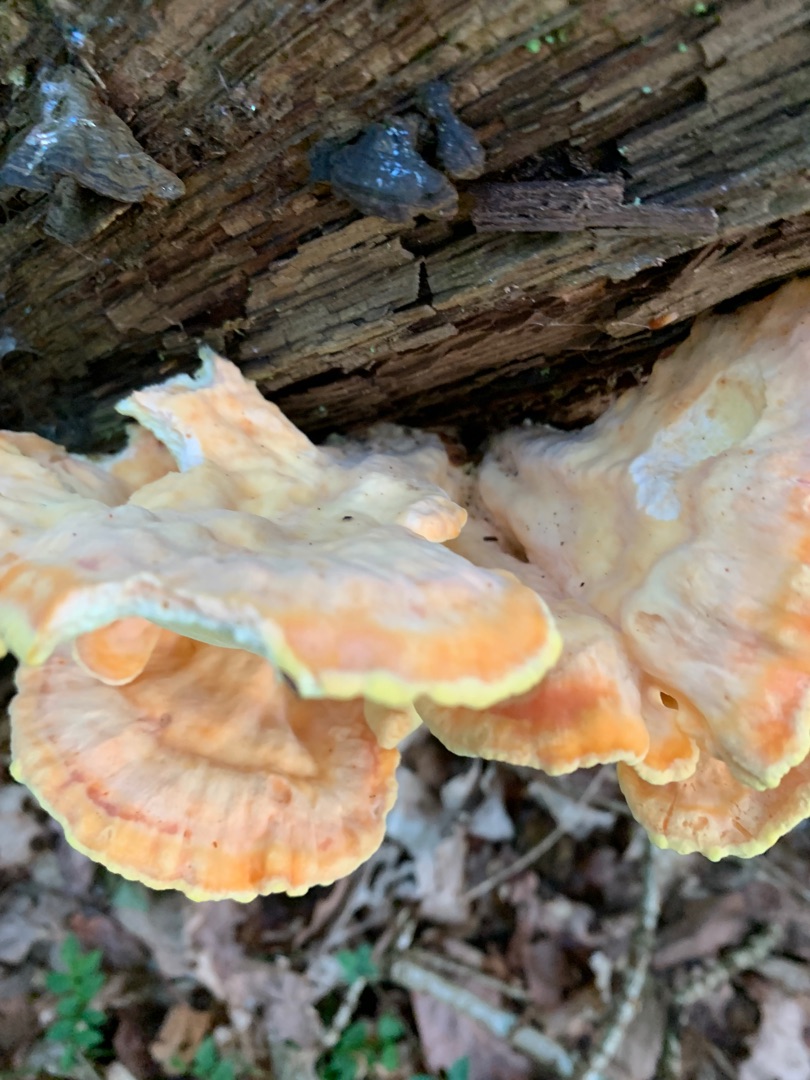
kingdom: Fungi
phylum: Basidiomycota
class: Agaricomycetes
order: Polyporales
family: Laetiporaceae
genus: Laetiporus
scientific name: Laetiporus sulphureus
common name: Svovlporesvamp
